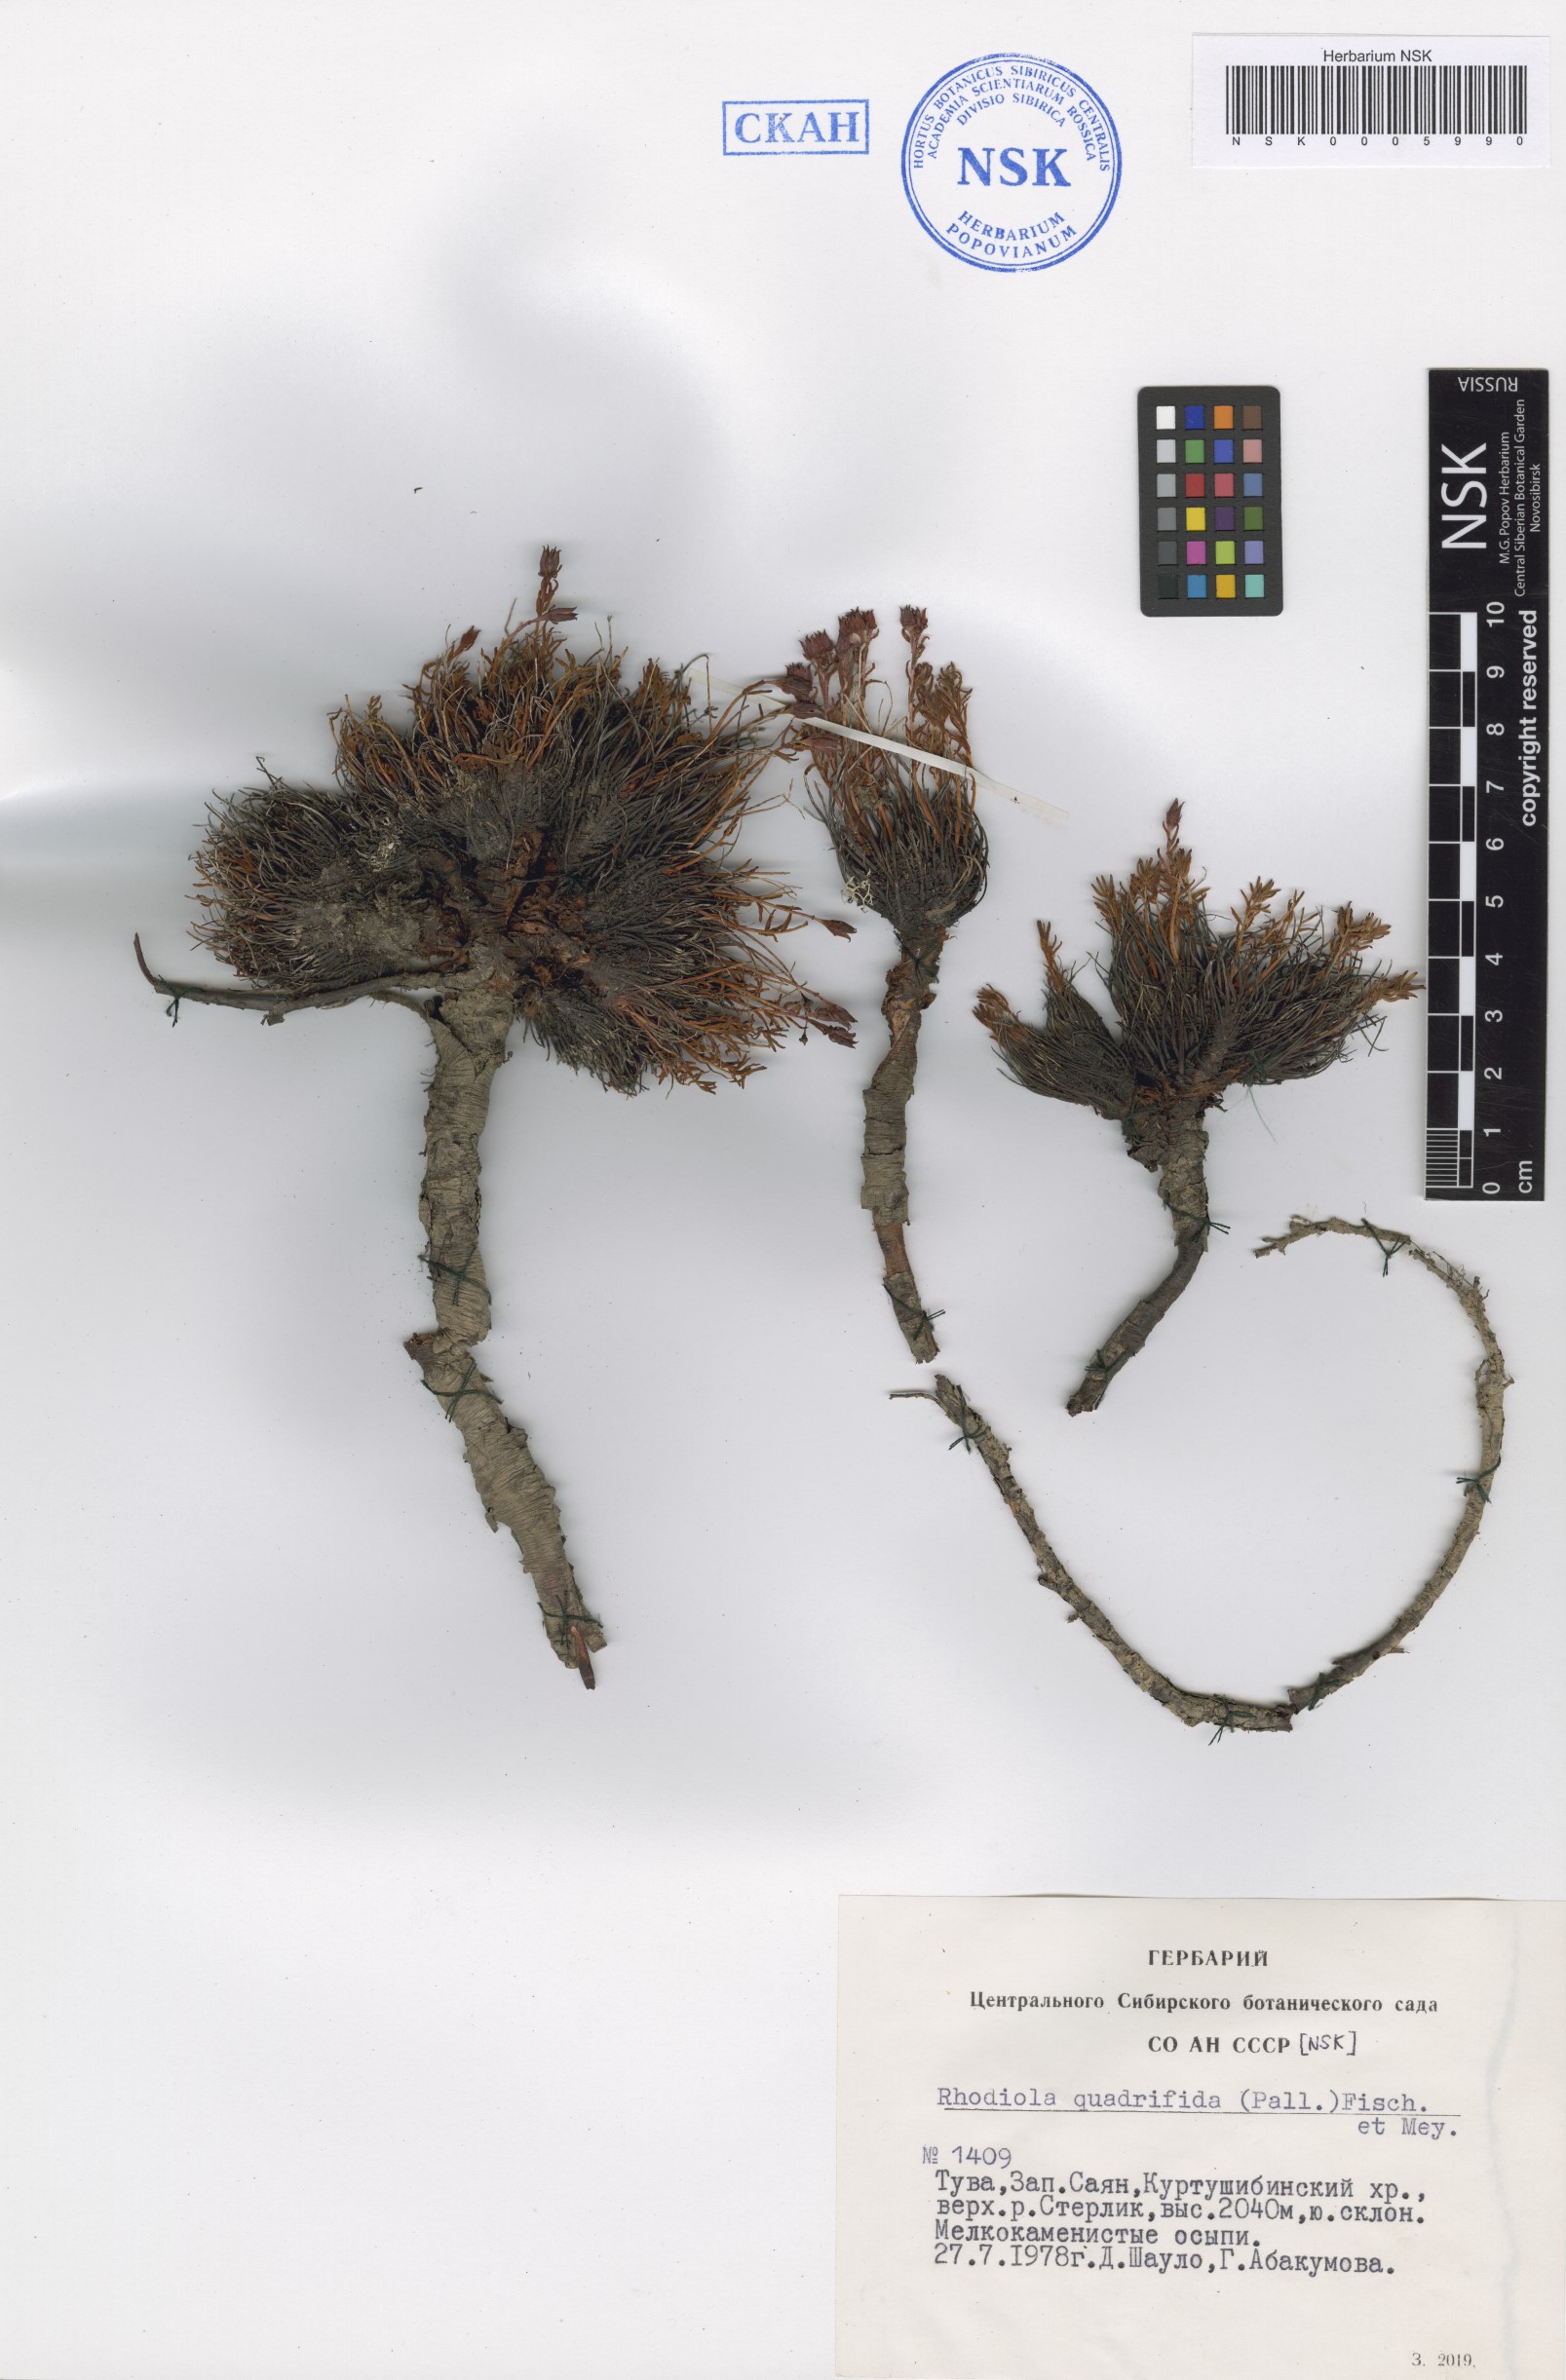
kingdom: Plantae
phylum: Tracheophyta
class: Magnoliopsida
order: Saxifragales
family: Crassulaceae
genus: Rhodiola
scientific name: Rhodiola quadrifida
